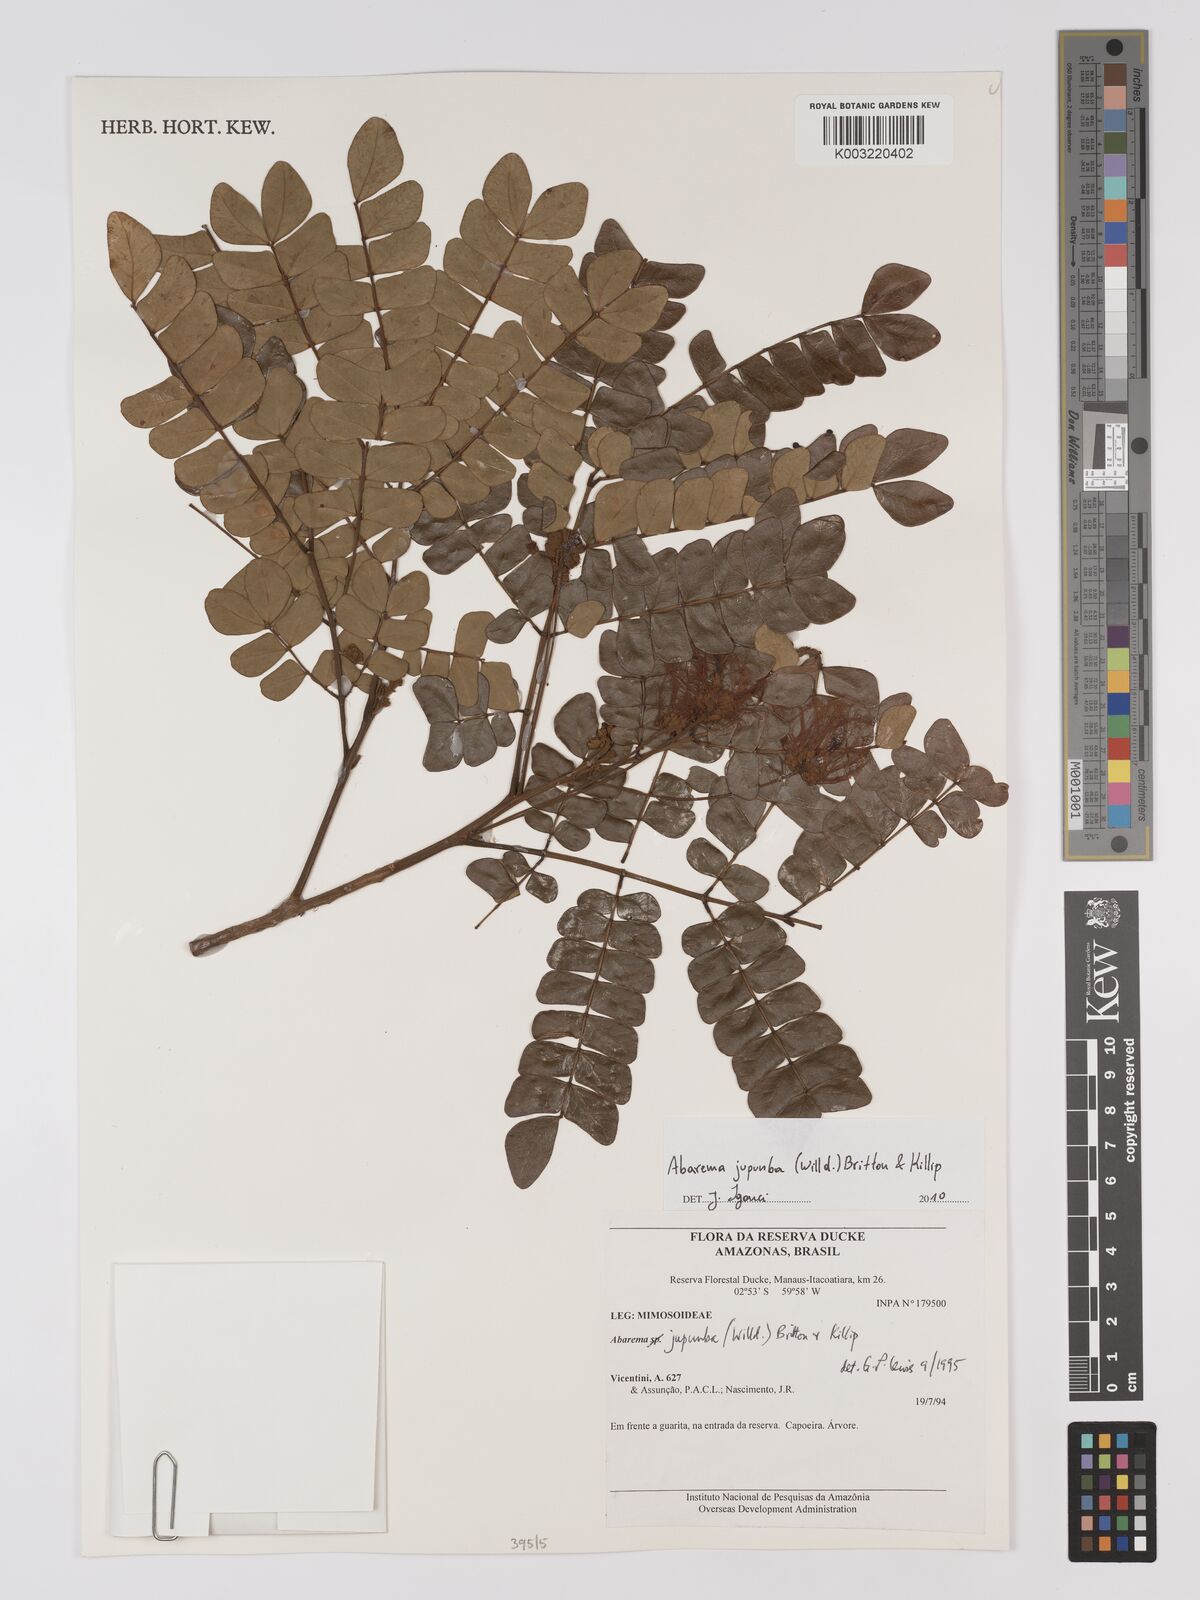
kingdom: Plantae
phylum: Tracheophyta
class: Magnoliopsida
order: Fabales
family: Fabaceae
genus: Jupunba
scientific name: Jupunba trapezifolia
